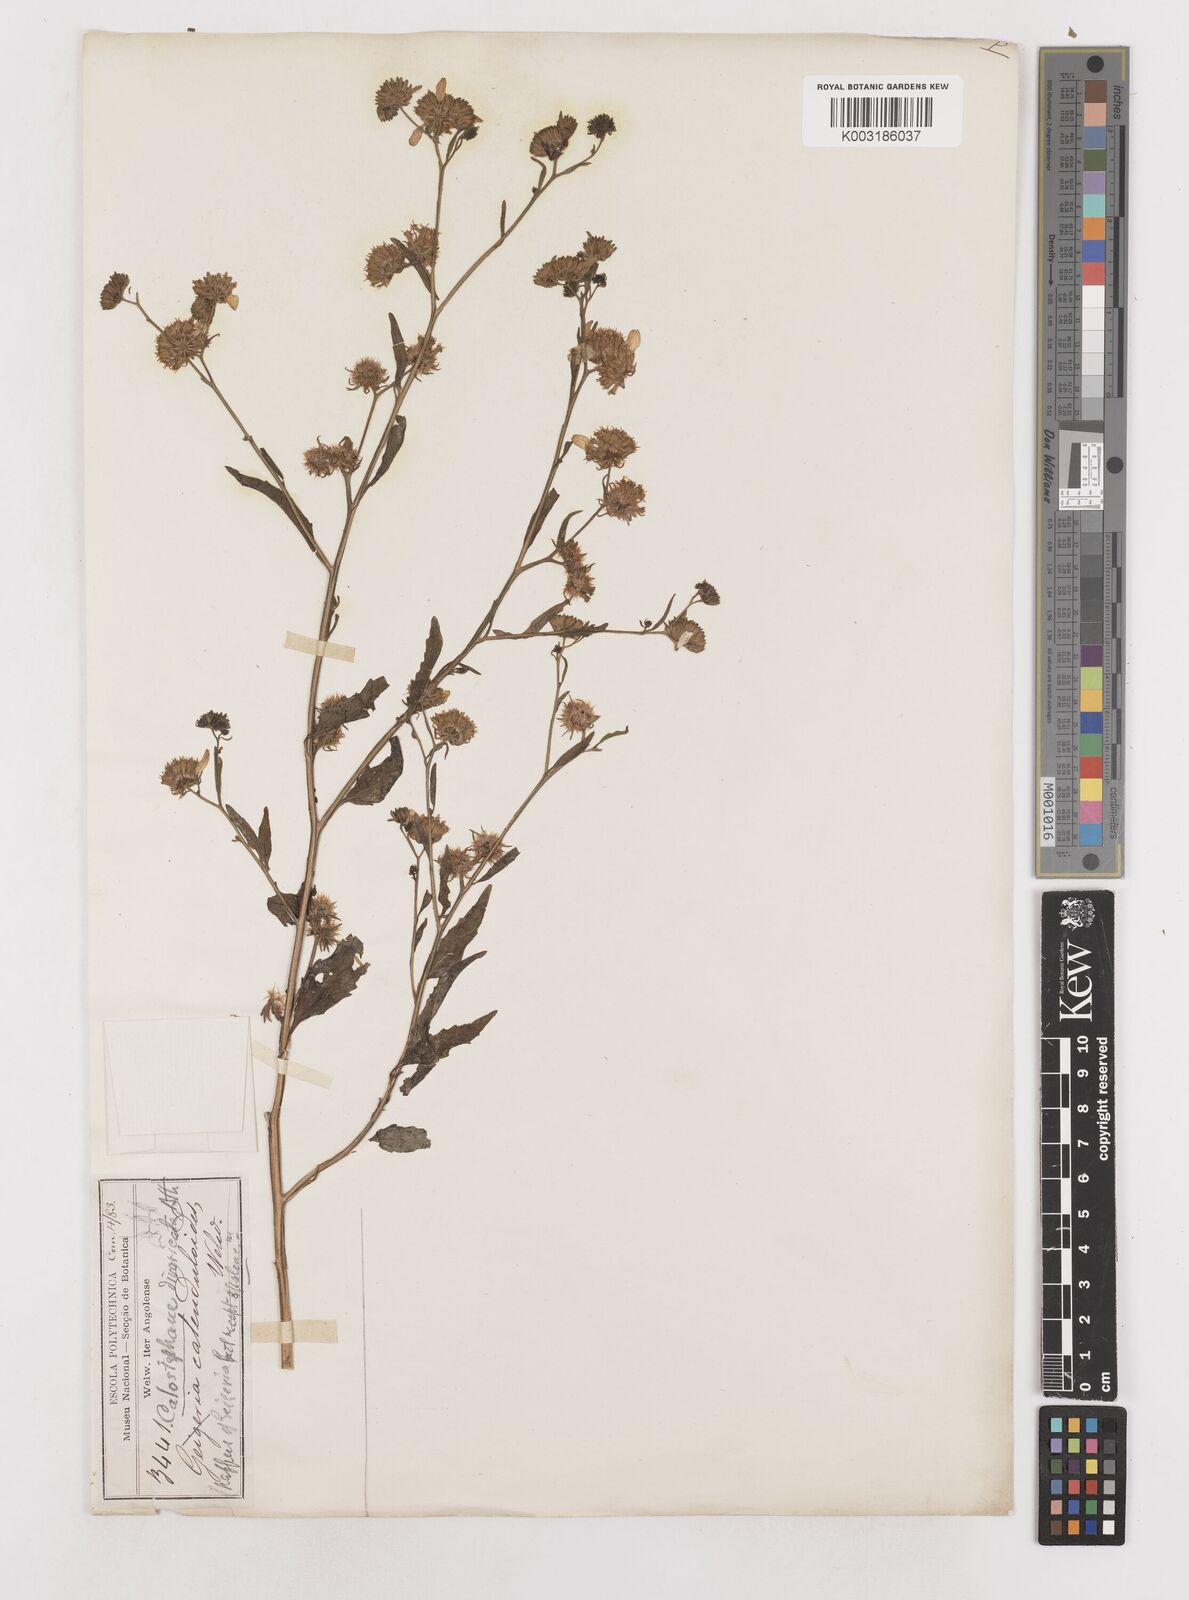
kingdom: Plantae
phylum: Tracheophyta
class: Magnoliopsida
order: Asterales
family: Asteraceae
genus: Calostephane
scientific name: Calostephane divaricata
